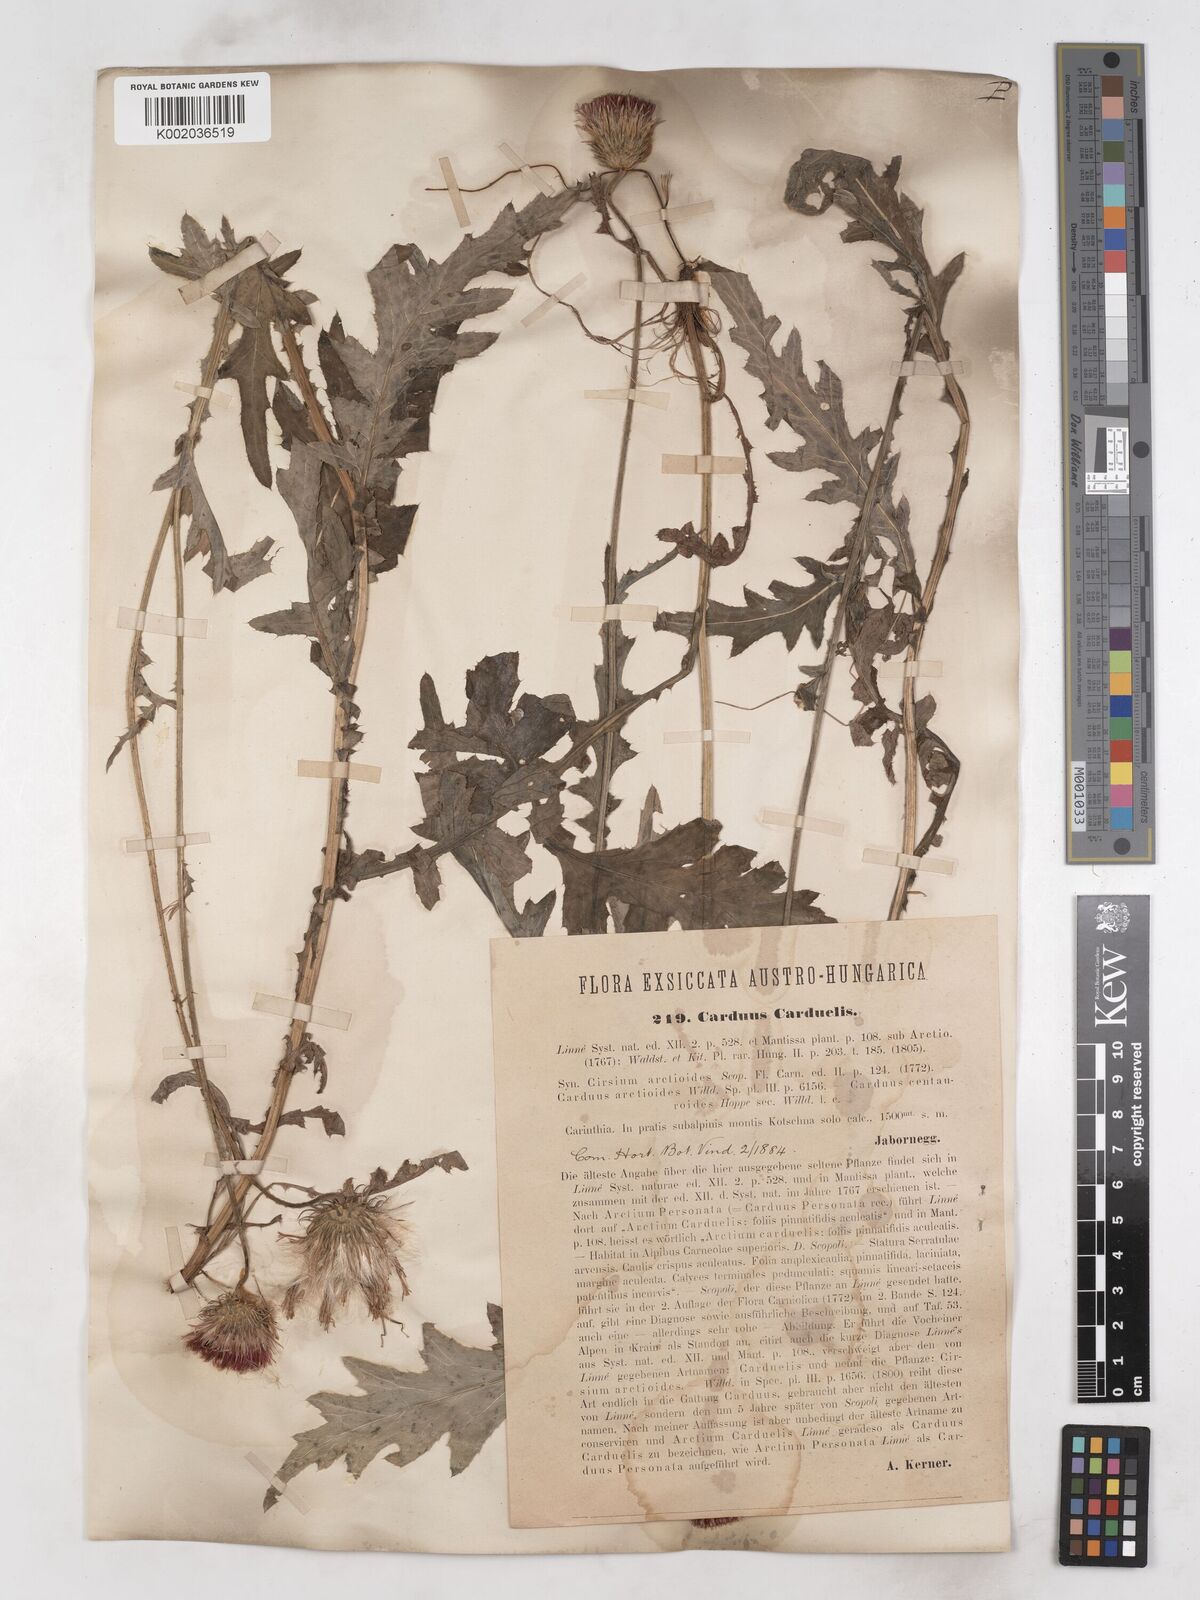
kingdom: Plantae
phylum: Tracheophyta
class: Magnoliopsida
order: Asterales
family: Asteraceae
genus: Carduus
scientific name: Carduus carduelis
